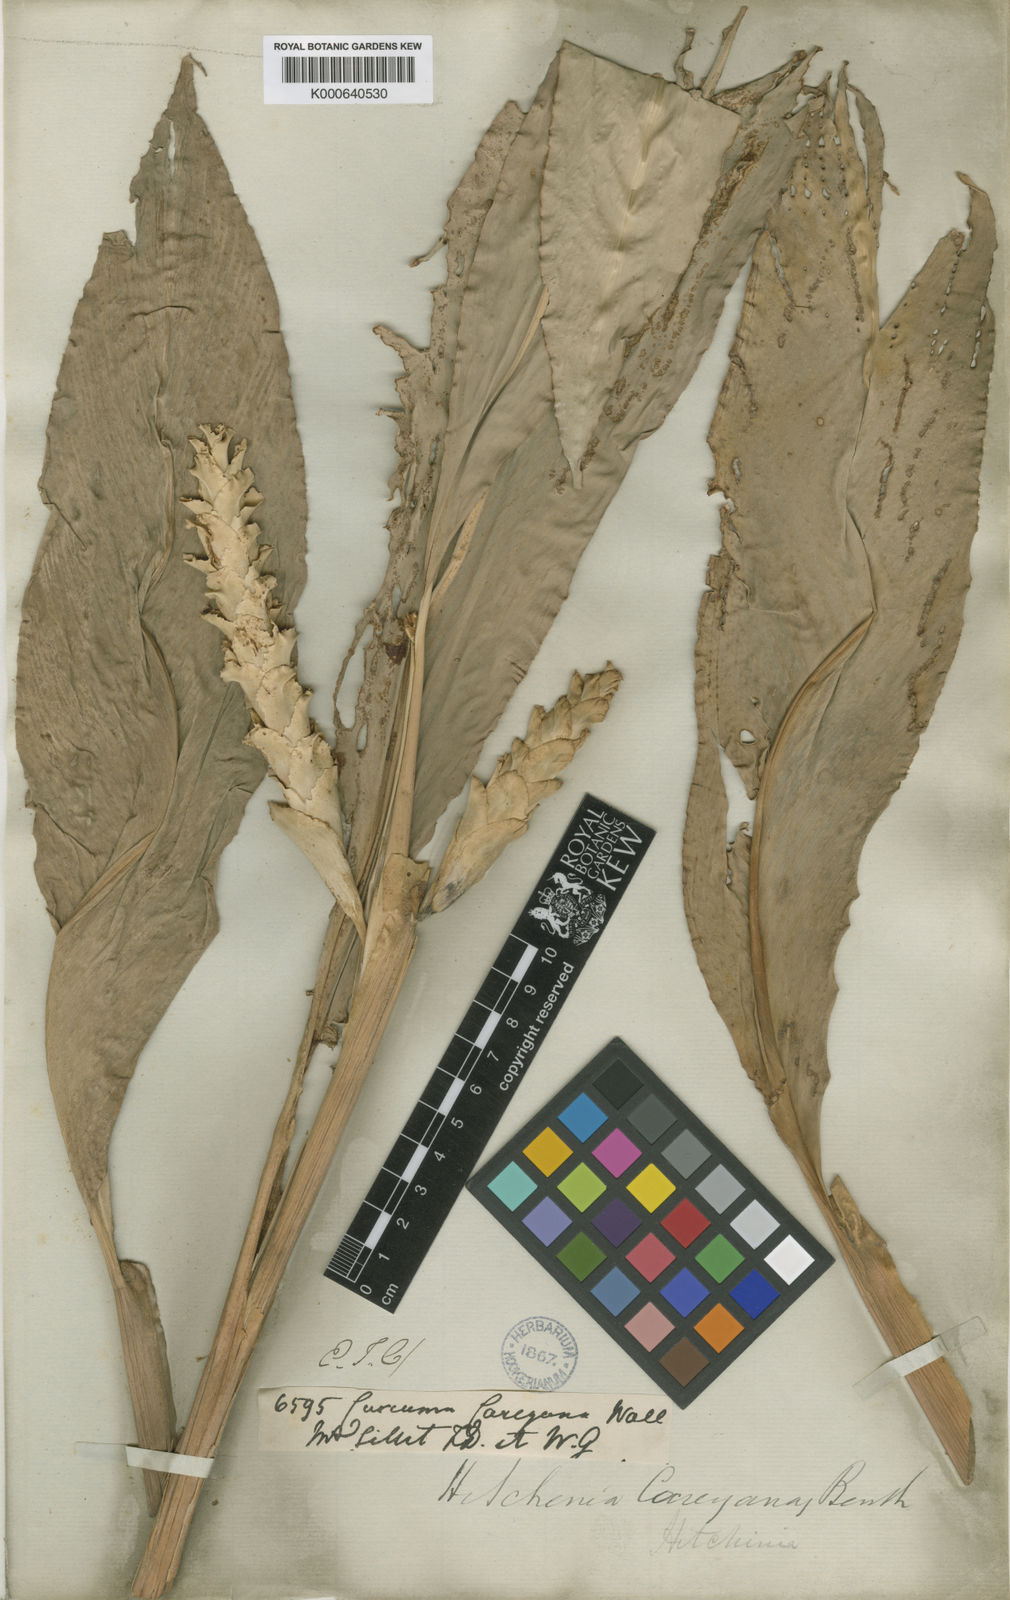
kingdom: Plantae
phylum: Tracheophyta
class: Liliopsida
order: Zingiberales
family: Zingiberaceae
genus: Larsenianthus
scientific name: Larsenianthus careyanus
